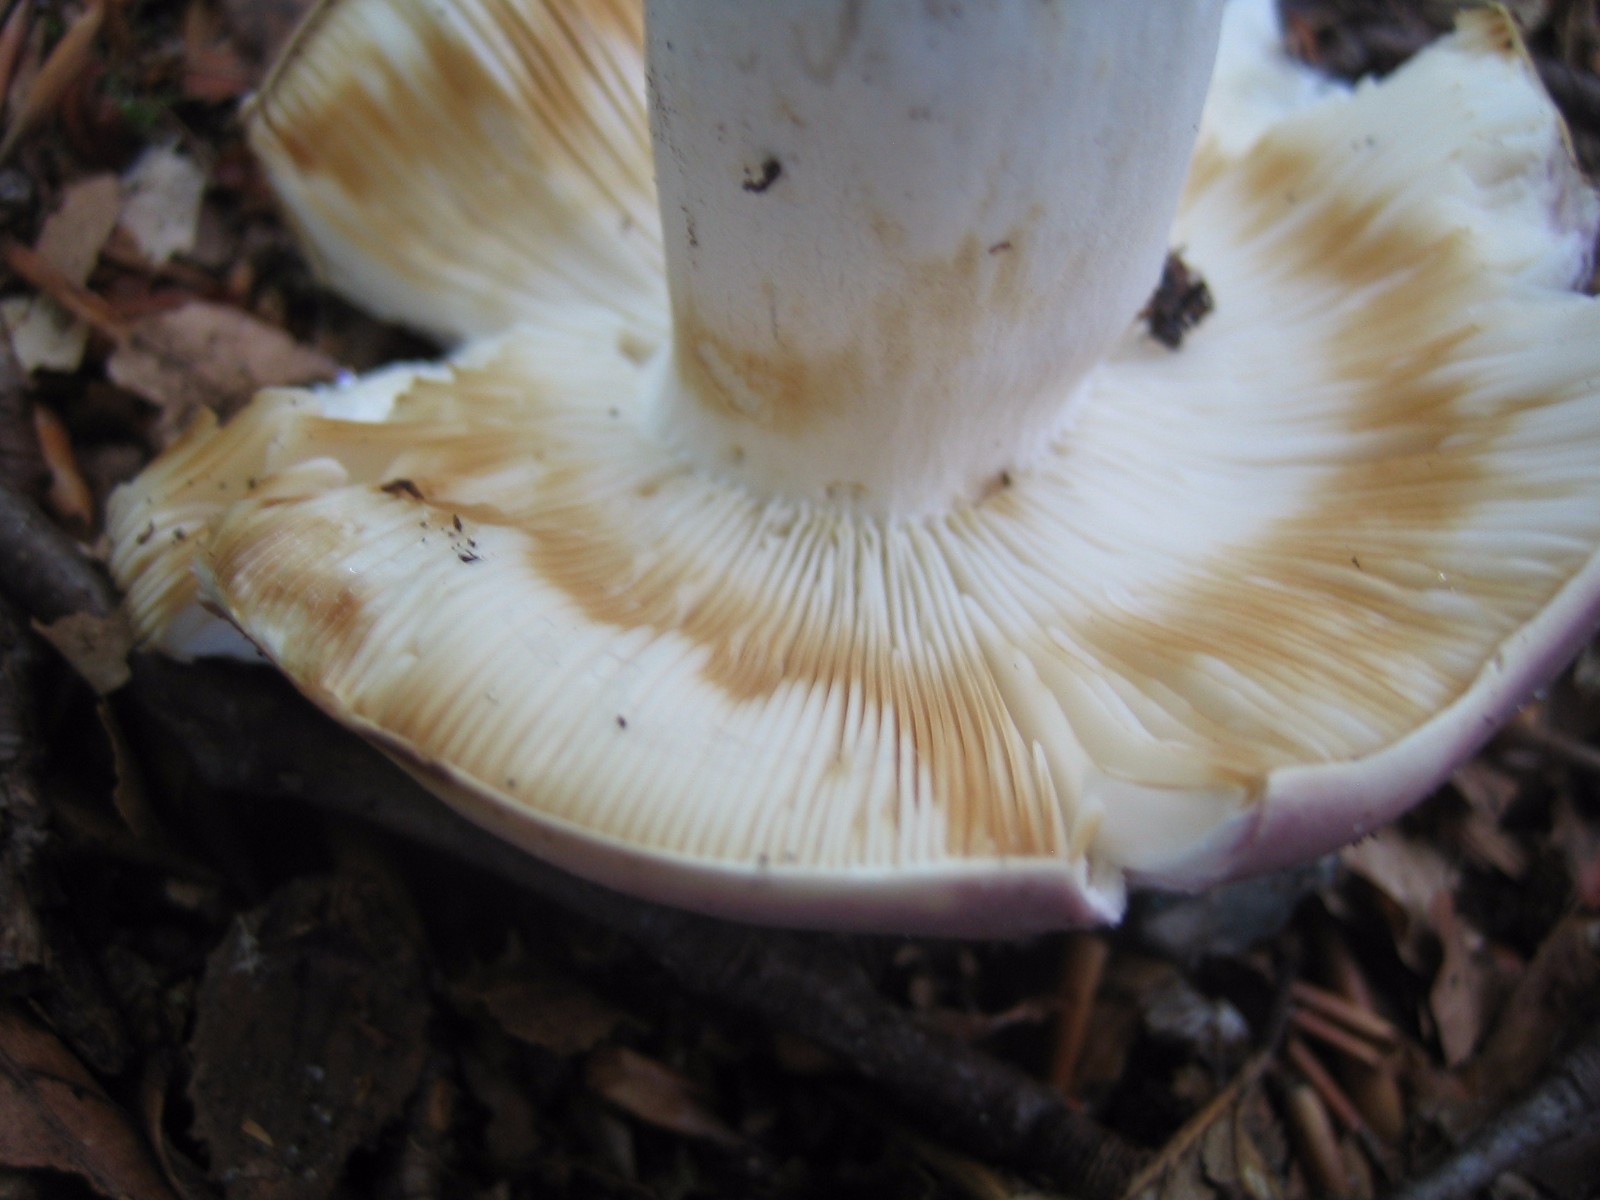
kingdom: Fungi
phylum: Basidiomycota
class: Agaricomycetes
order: Russulales
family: Russulaceae
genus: Russula
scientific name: Russula cyanoxantha
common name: broget skørhat
